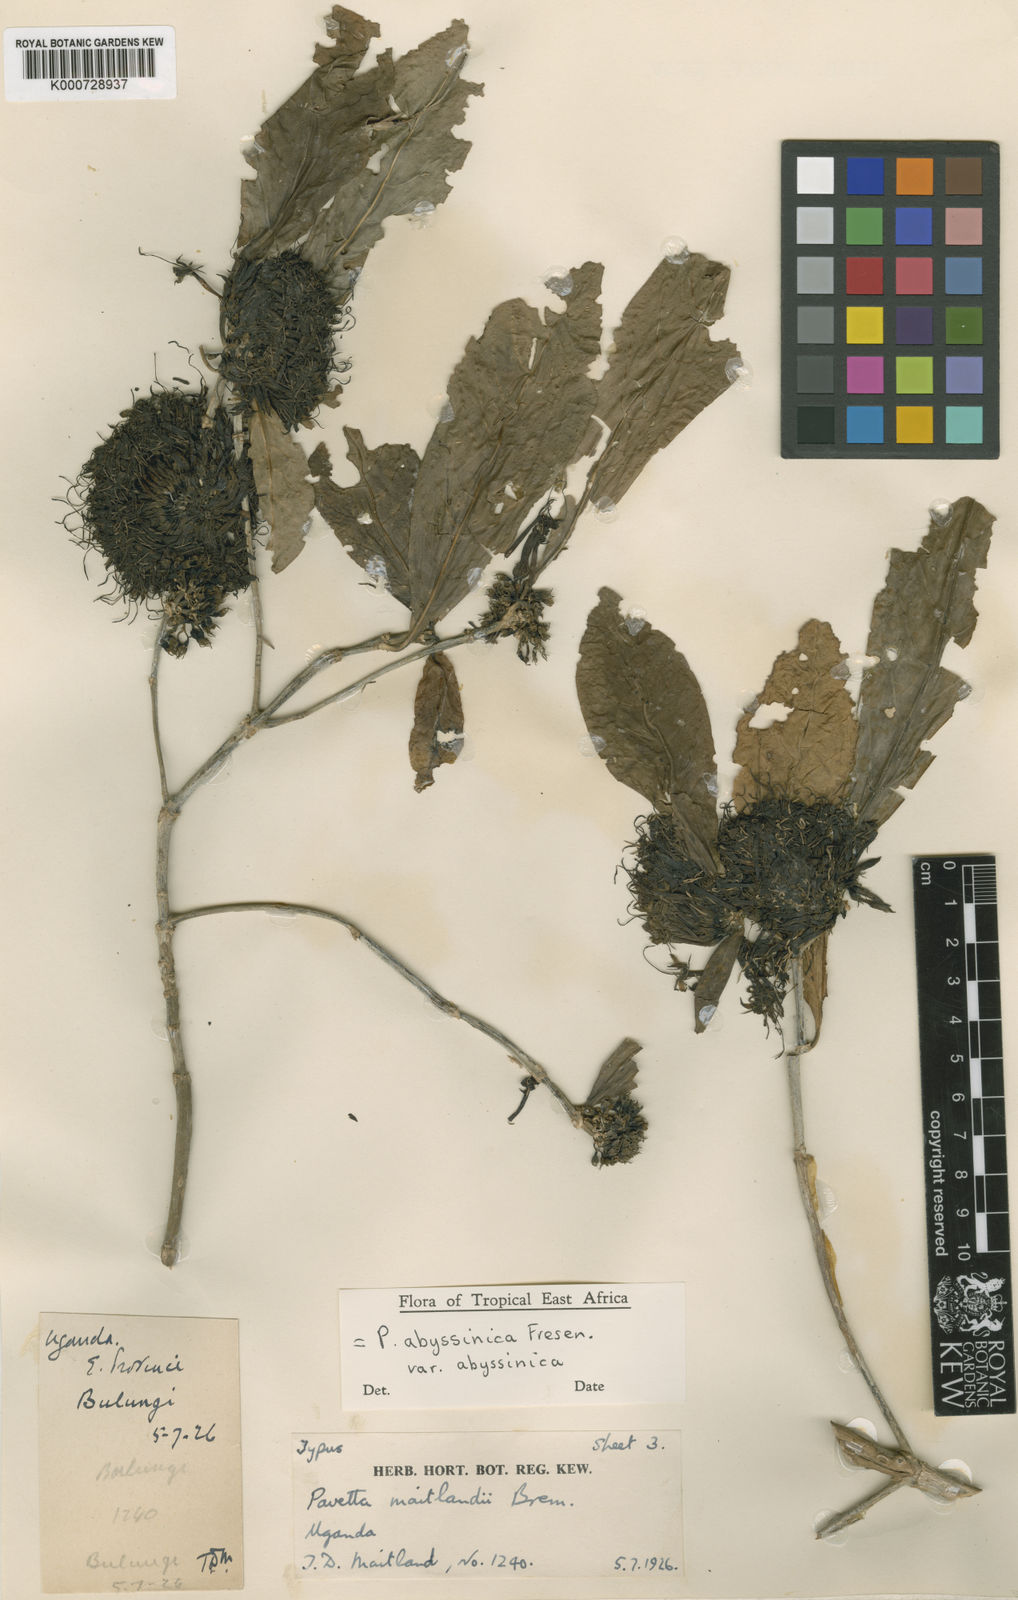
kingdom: Plantae
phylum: Tracheophyta
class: Magnoliopsida
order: Gentianales
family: Rubiaceae
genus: Pavetta
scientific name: Pavetta abyssinica
